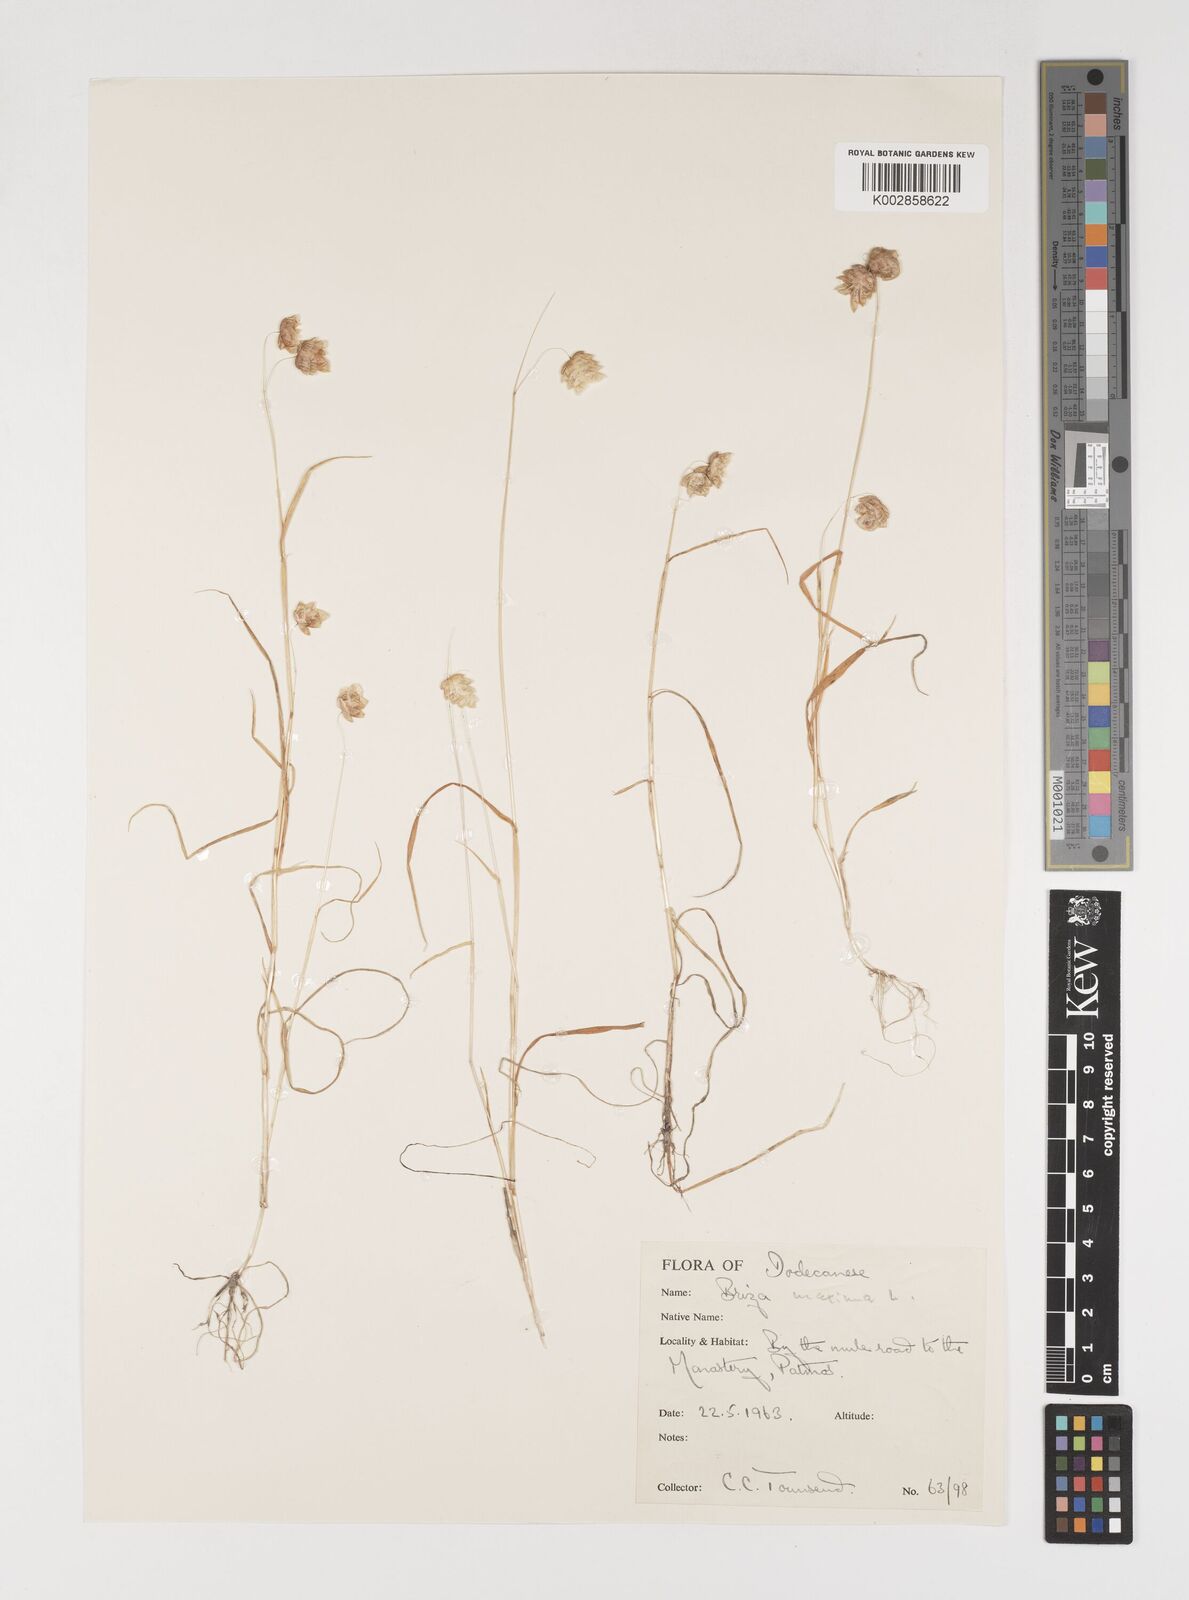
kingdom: Plantae
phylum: Tracheophyta
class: Liliopsida
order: Poales
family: Poaceae
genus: Briza
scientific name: Briza maxima
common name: Big quakinggrass
